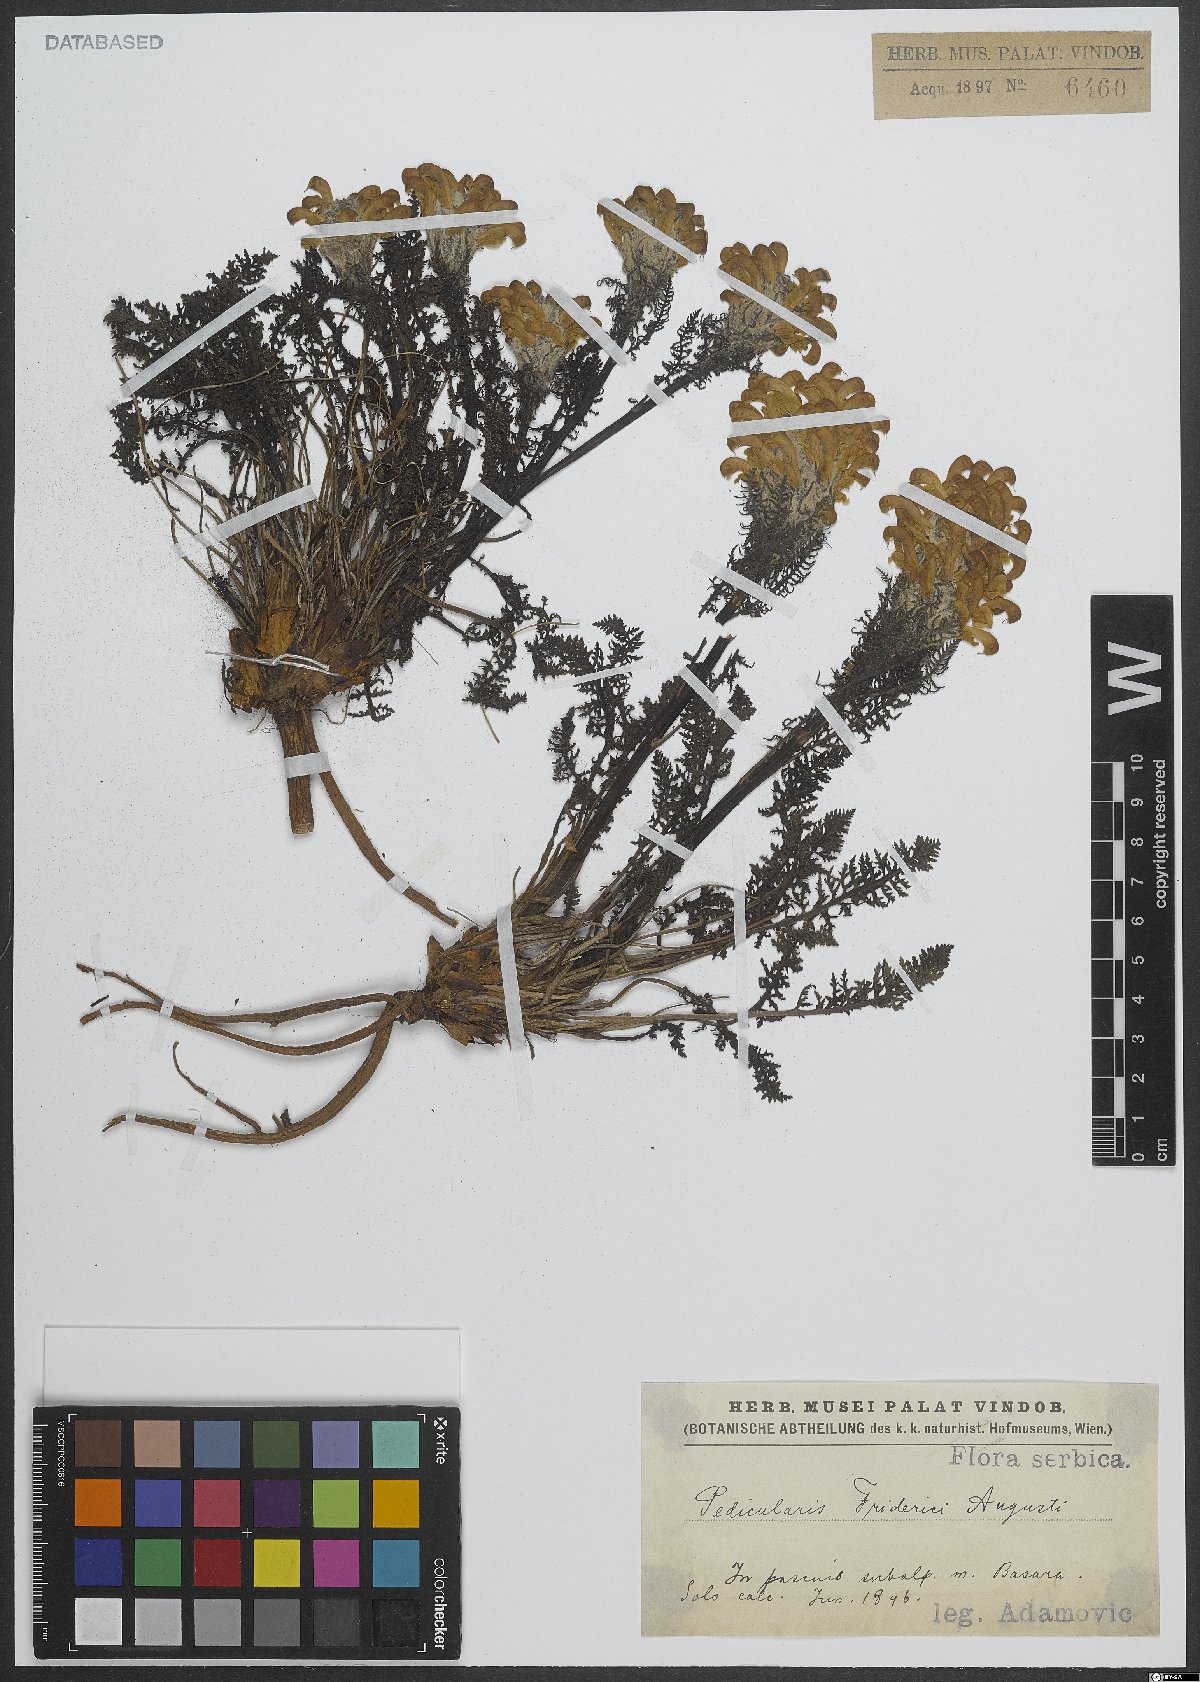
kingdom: Plantae
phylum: Tracheophyta
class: Magnoliopsida
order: Lamiales
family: Orobanchaceae
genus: Pedicularis
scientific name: Pedicularis friderici-augusti
